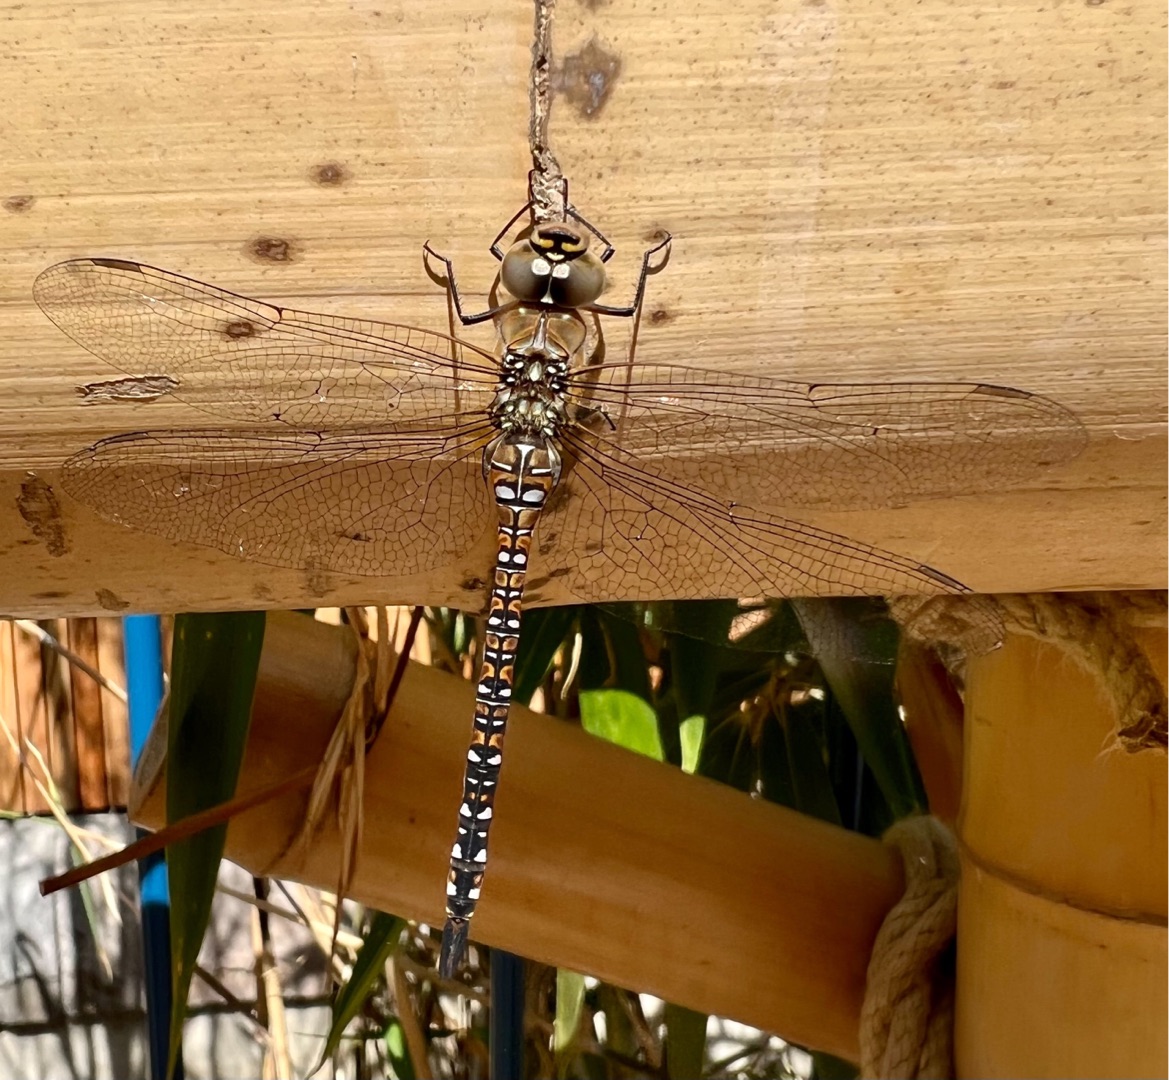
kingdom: Animalia
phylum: Arthropoda
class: Insecta
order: Odonata
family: Aeshnidae
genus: Aeshna
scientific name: Aeshna mixta
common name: Efterårs-mosaikguldsmed
